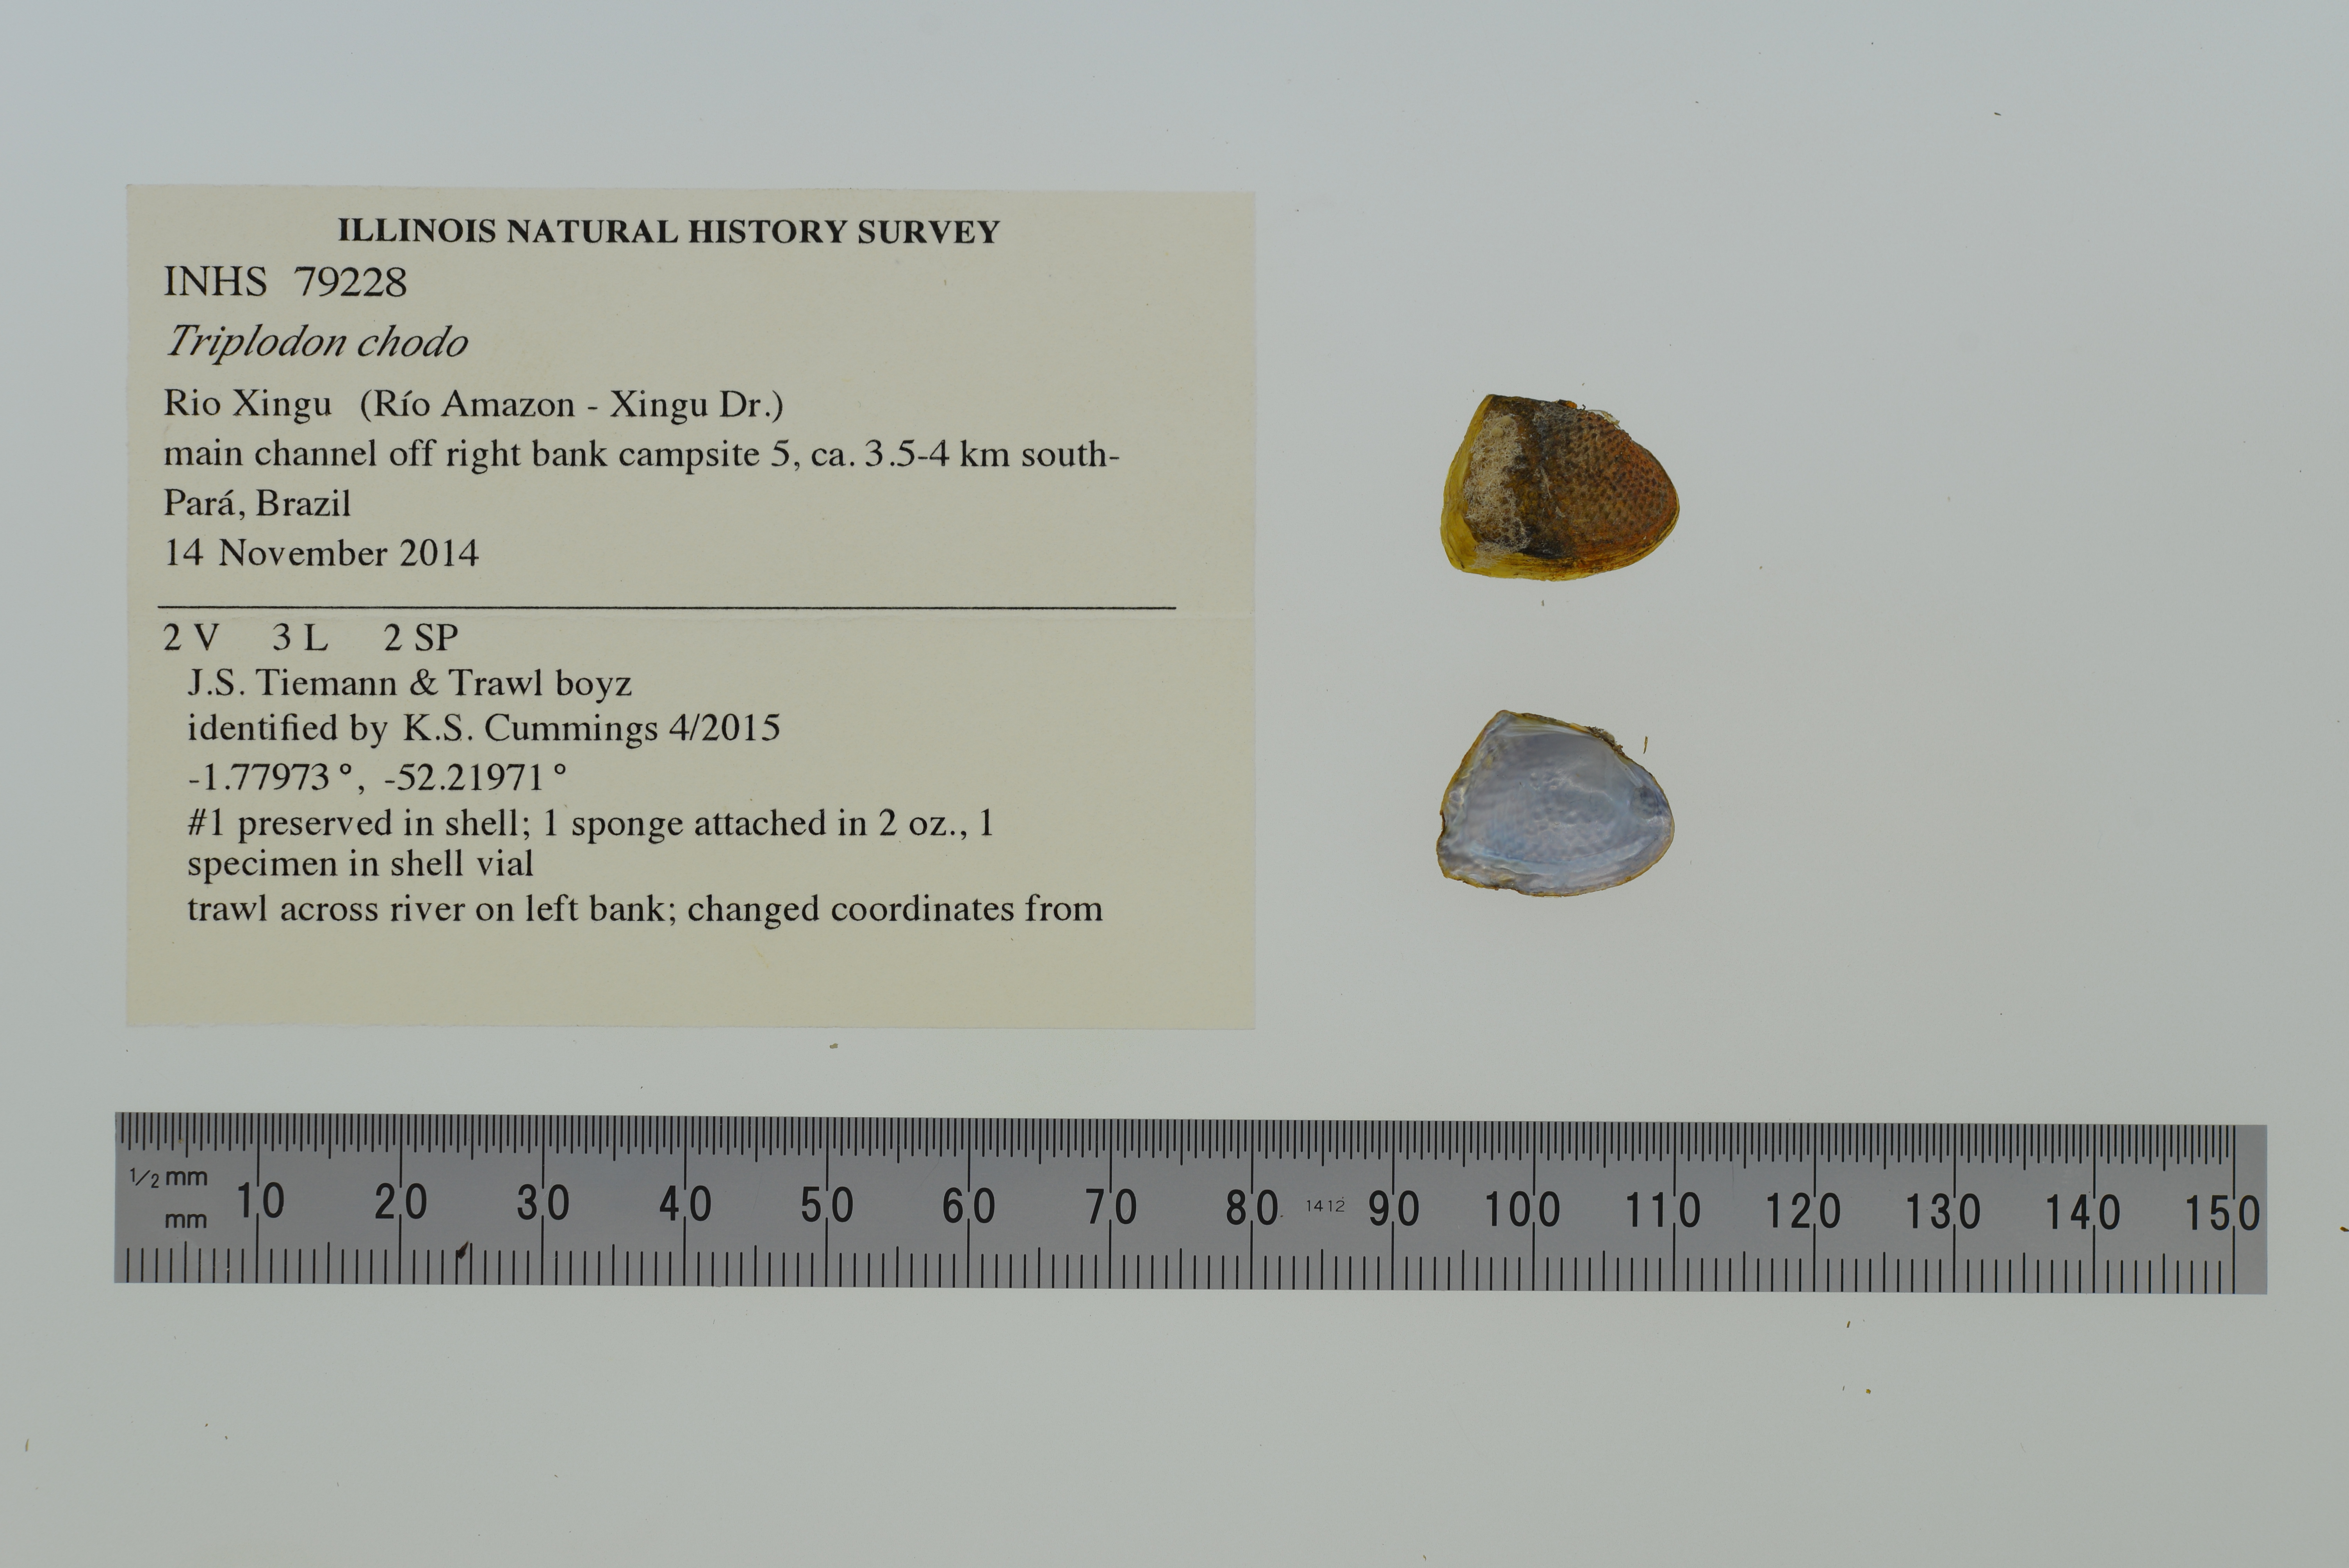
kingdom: Animalia
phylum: Mollusca
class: Bivalvia
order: Unionida
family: Hyriidae
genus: Triplodon
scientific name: Triplodon chodo
